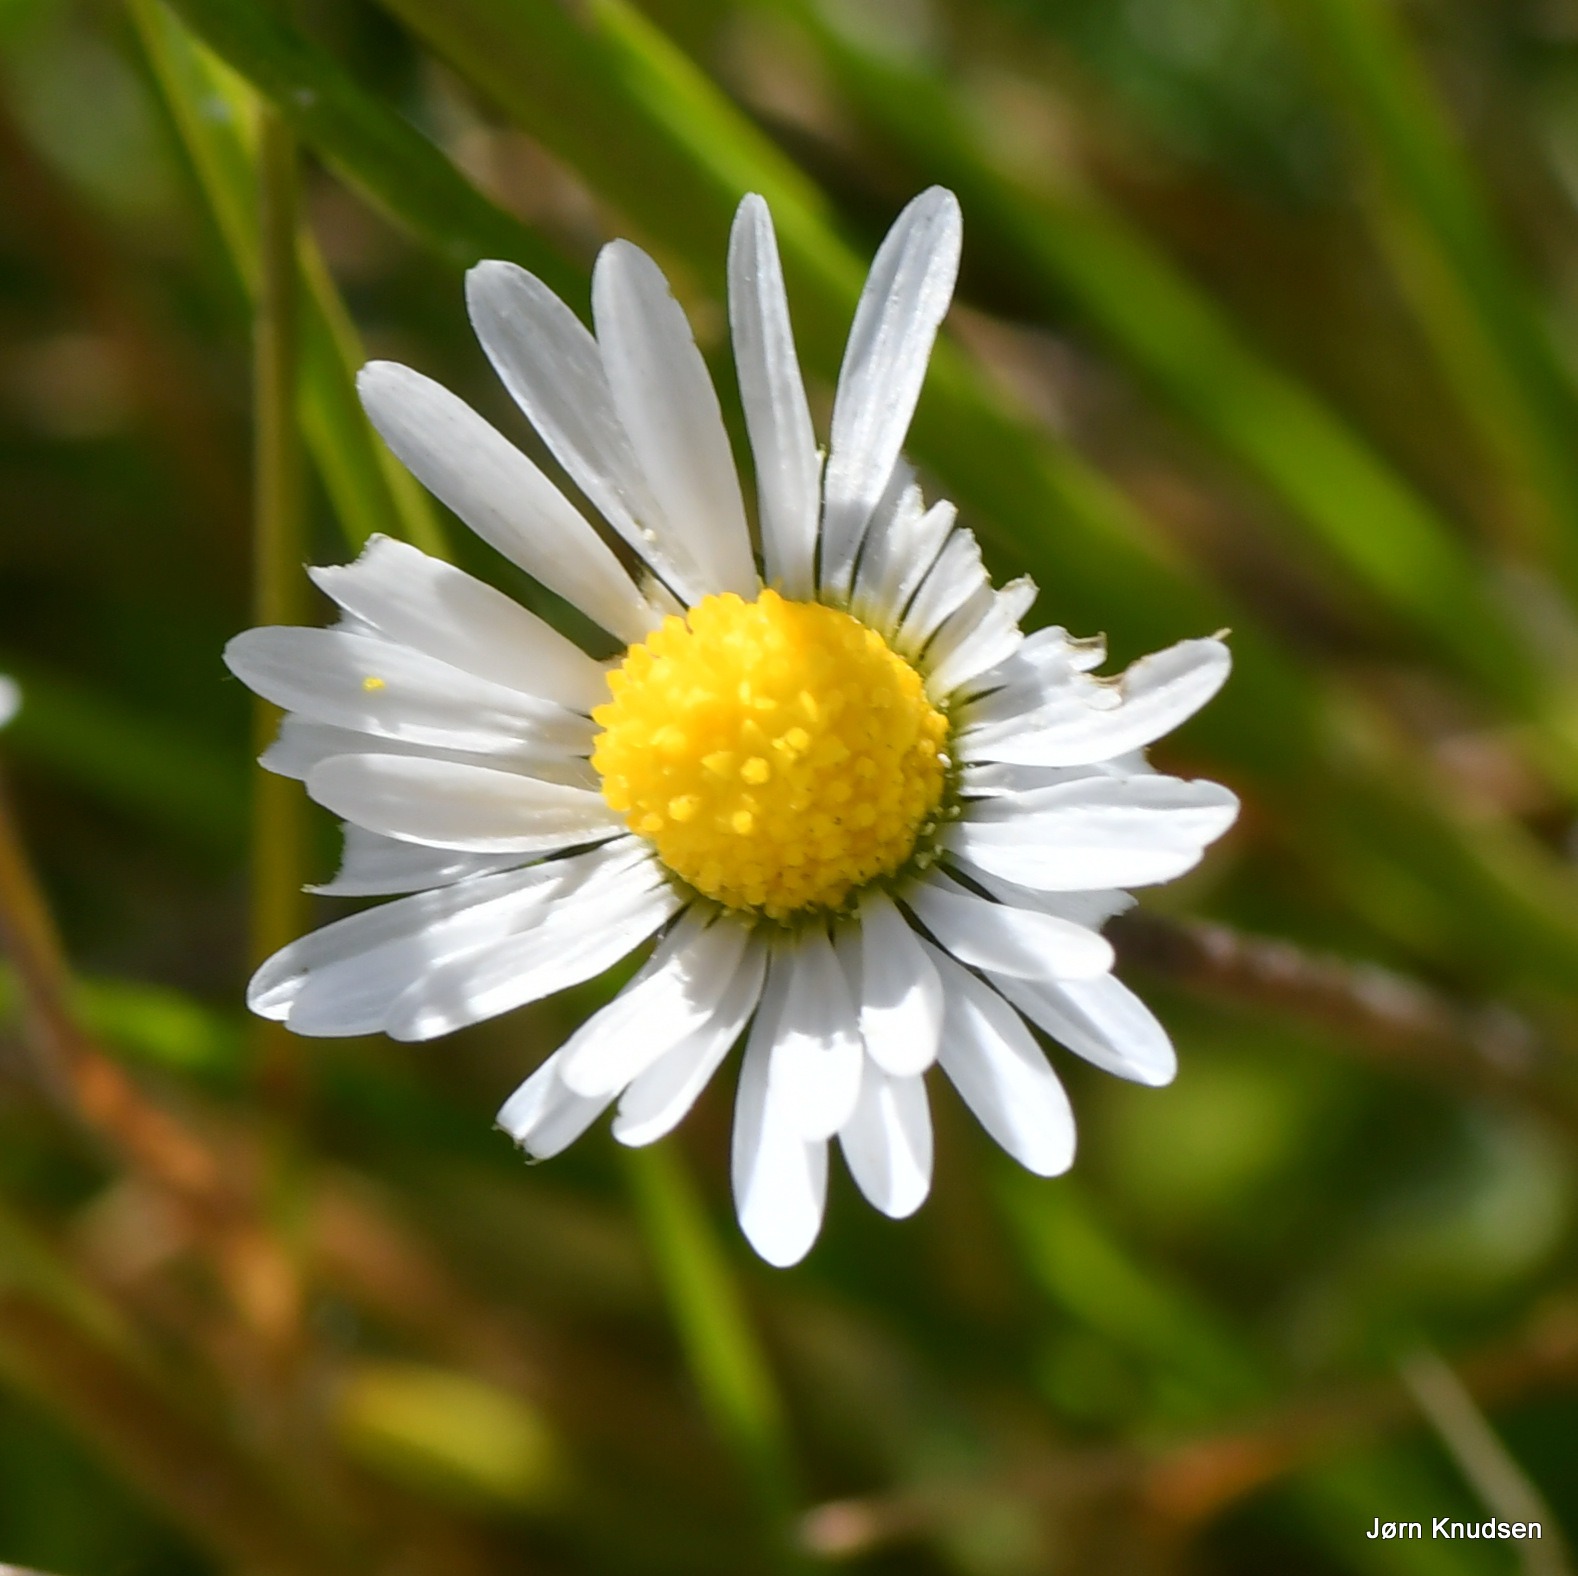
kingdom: Plantae
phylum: Tracheophyta
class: Magnoliopsida
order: Asterales
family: Asteraceae
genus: Bellis
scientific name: Bellis perennis
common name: Tusindfryd
